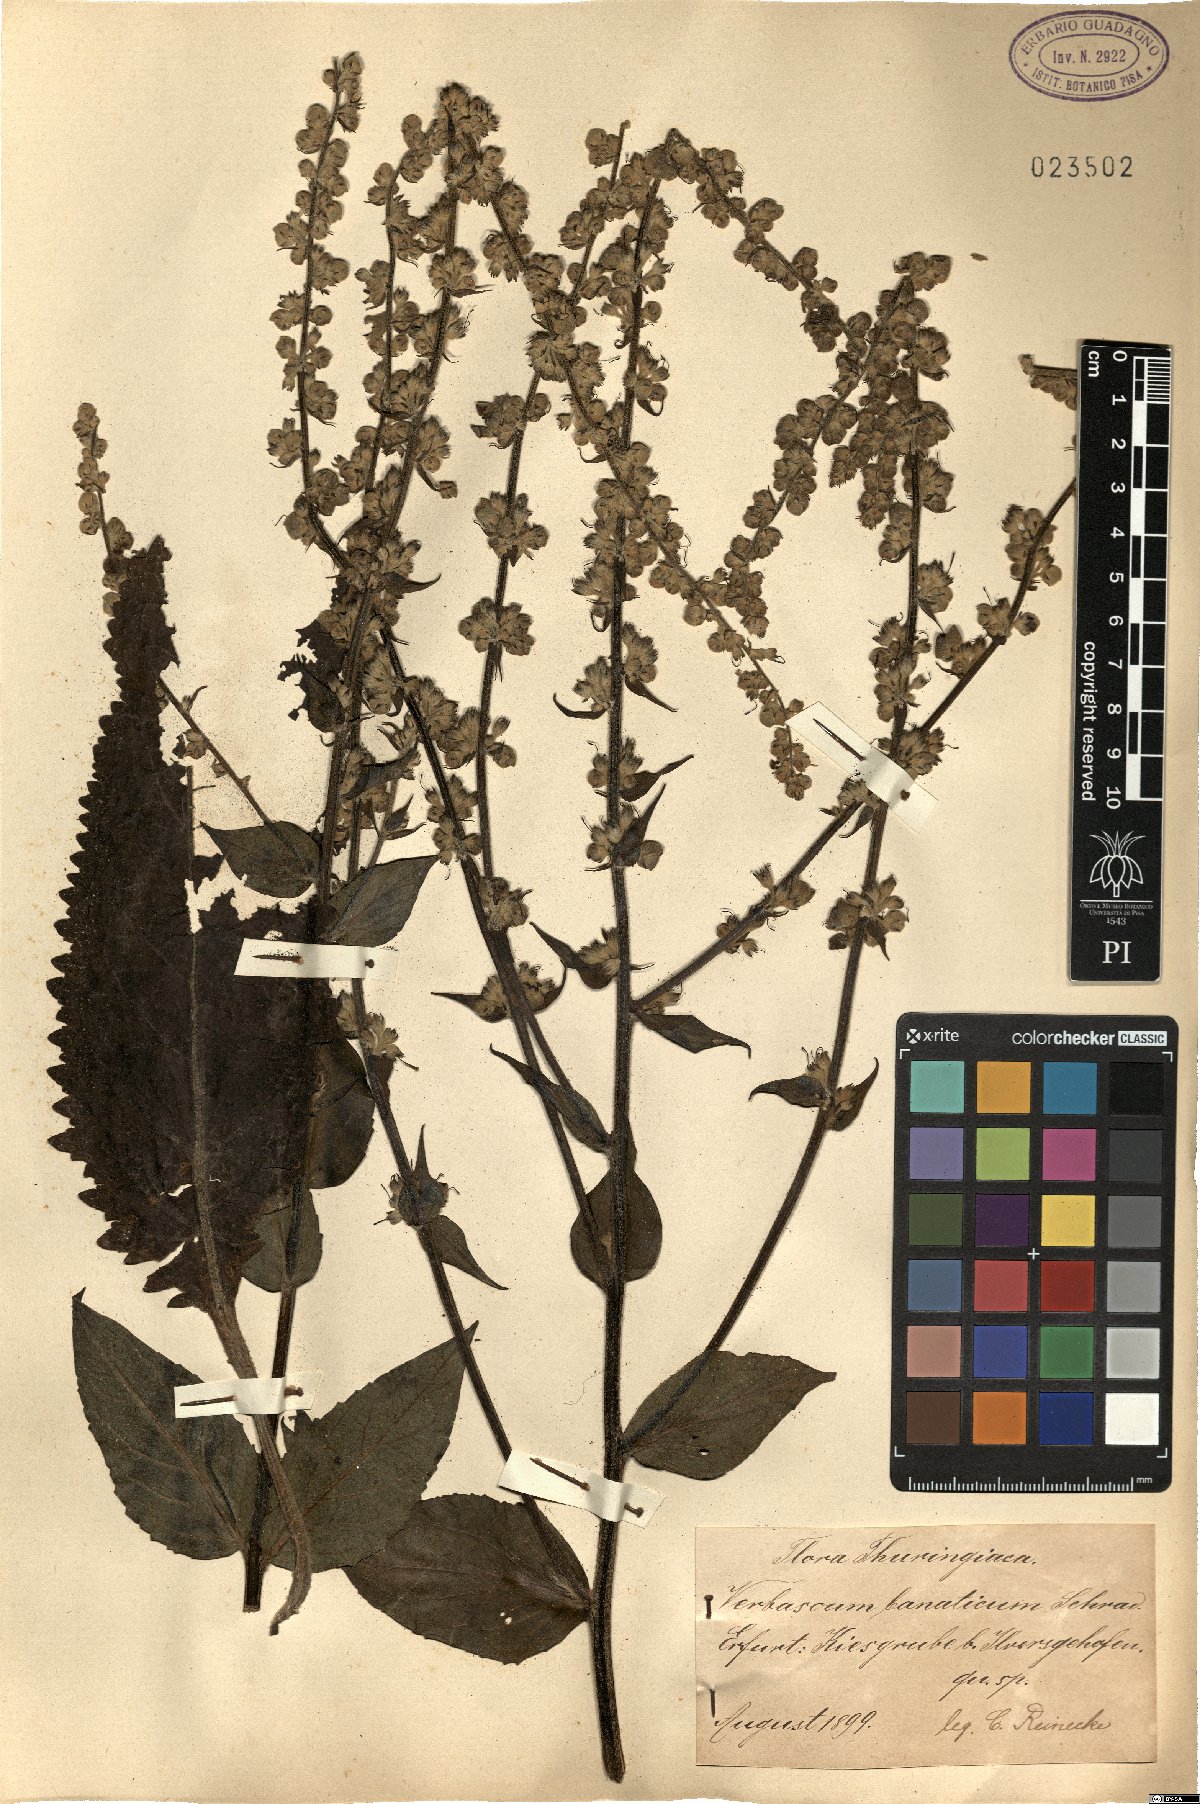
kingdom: Plantae
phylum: Tracheophyta
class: Magnoliopsida
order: Lamiales
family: Scrophulariaceae
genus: Verbascum
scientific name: Verbascum banaticum
